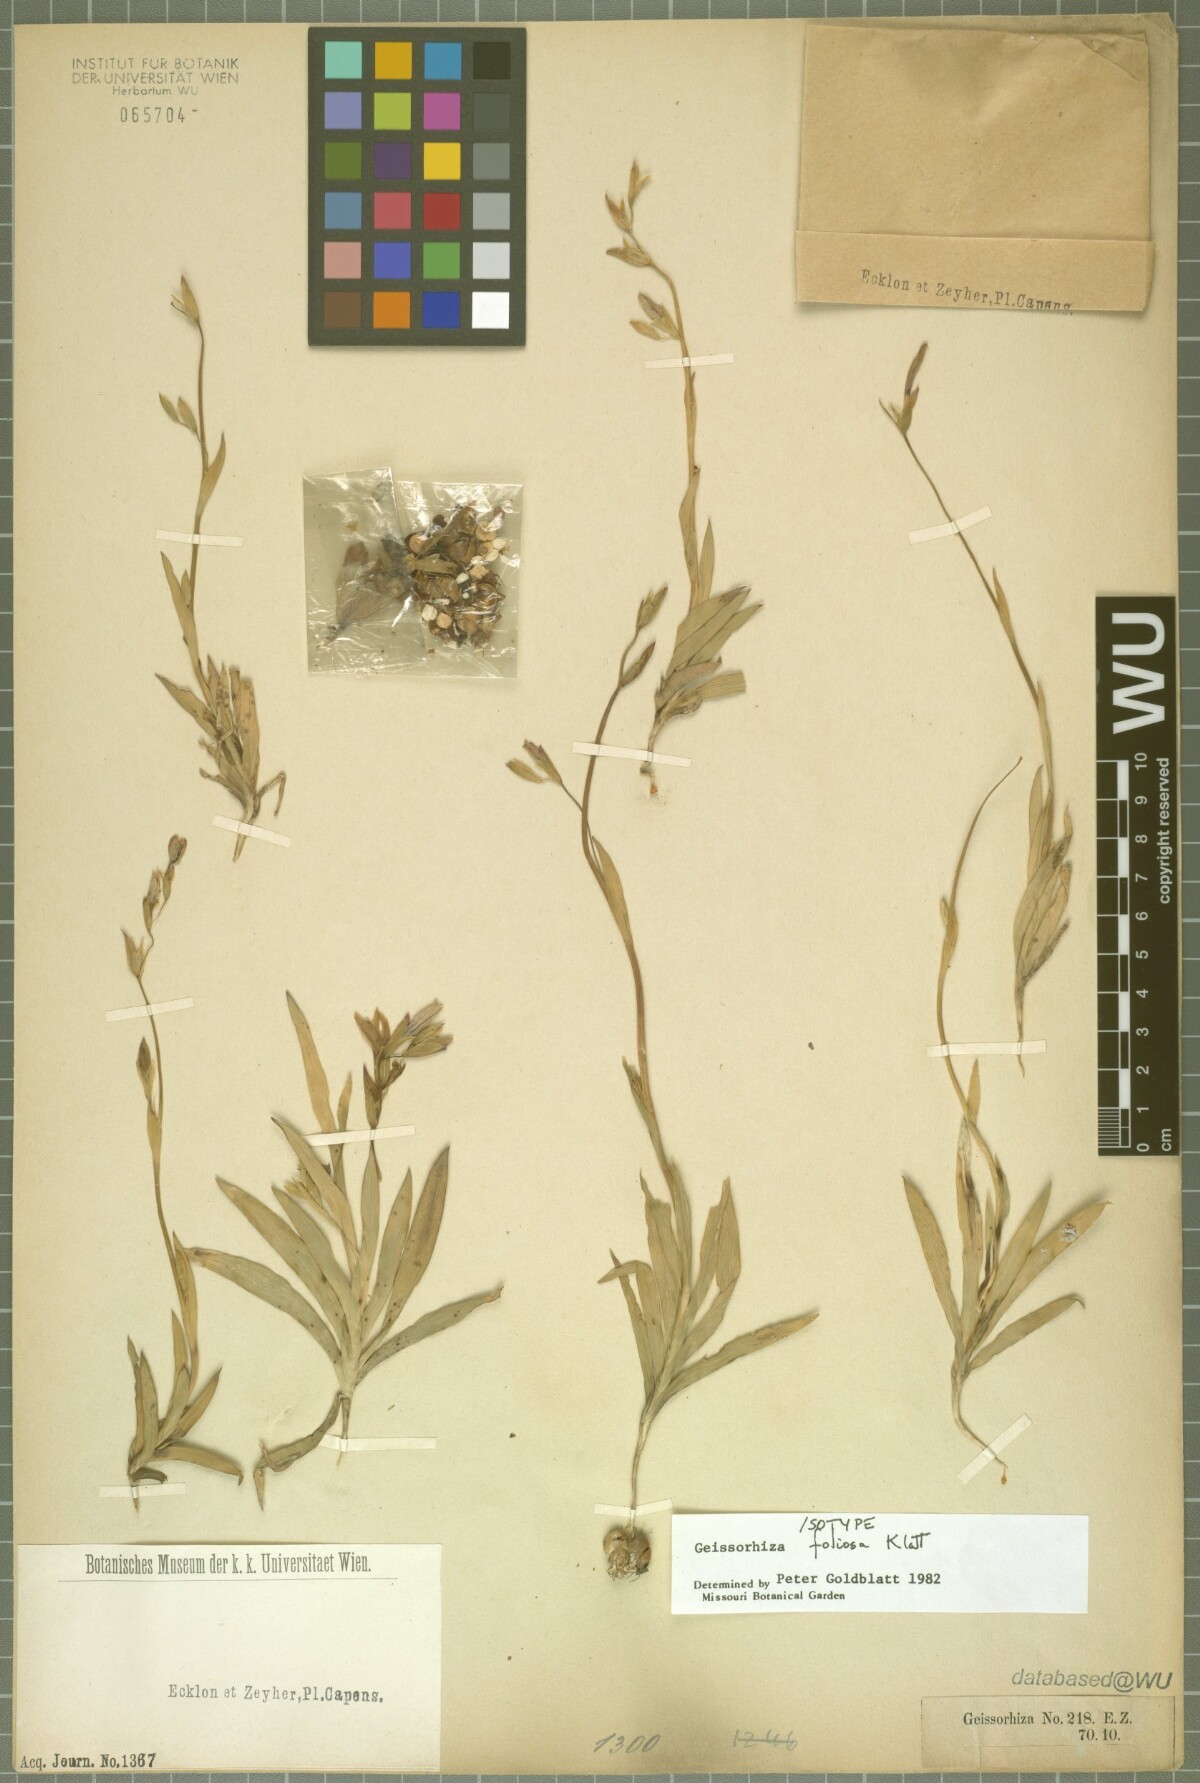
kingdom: Plantae
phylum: Tracheophyta
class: Liliopsida
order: Asparagales
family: Iridaceae
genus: Geissorhiza
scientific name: Geissorhiza foliosa
